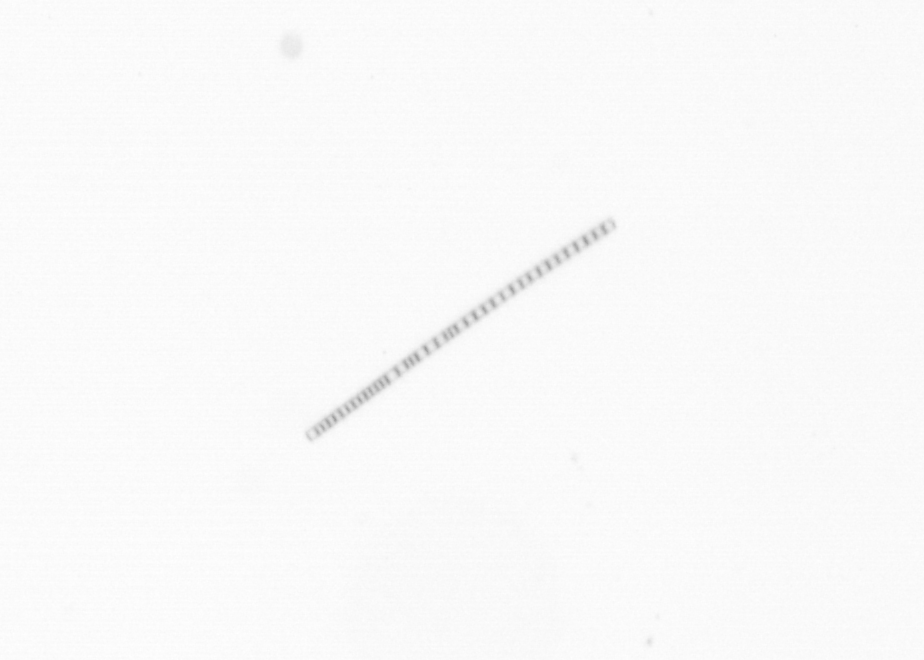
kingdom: Chromista
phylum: Ochrophyta
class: Bacillariophyceae
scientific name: Bacillariophyceae
